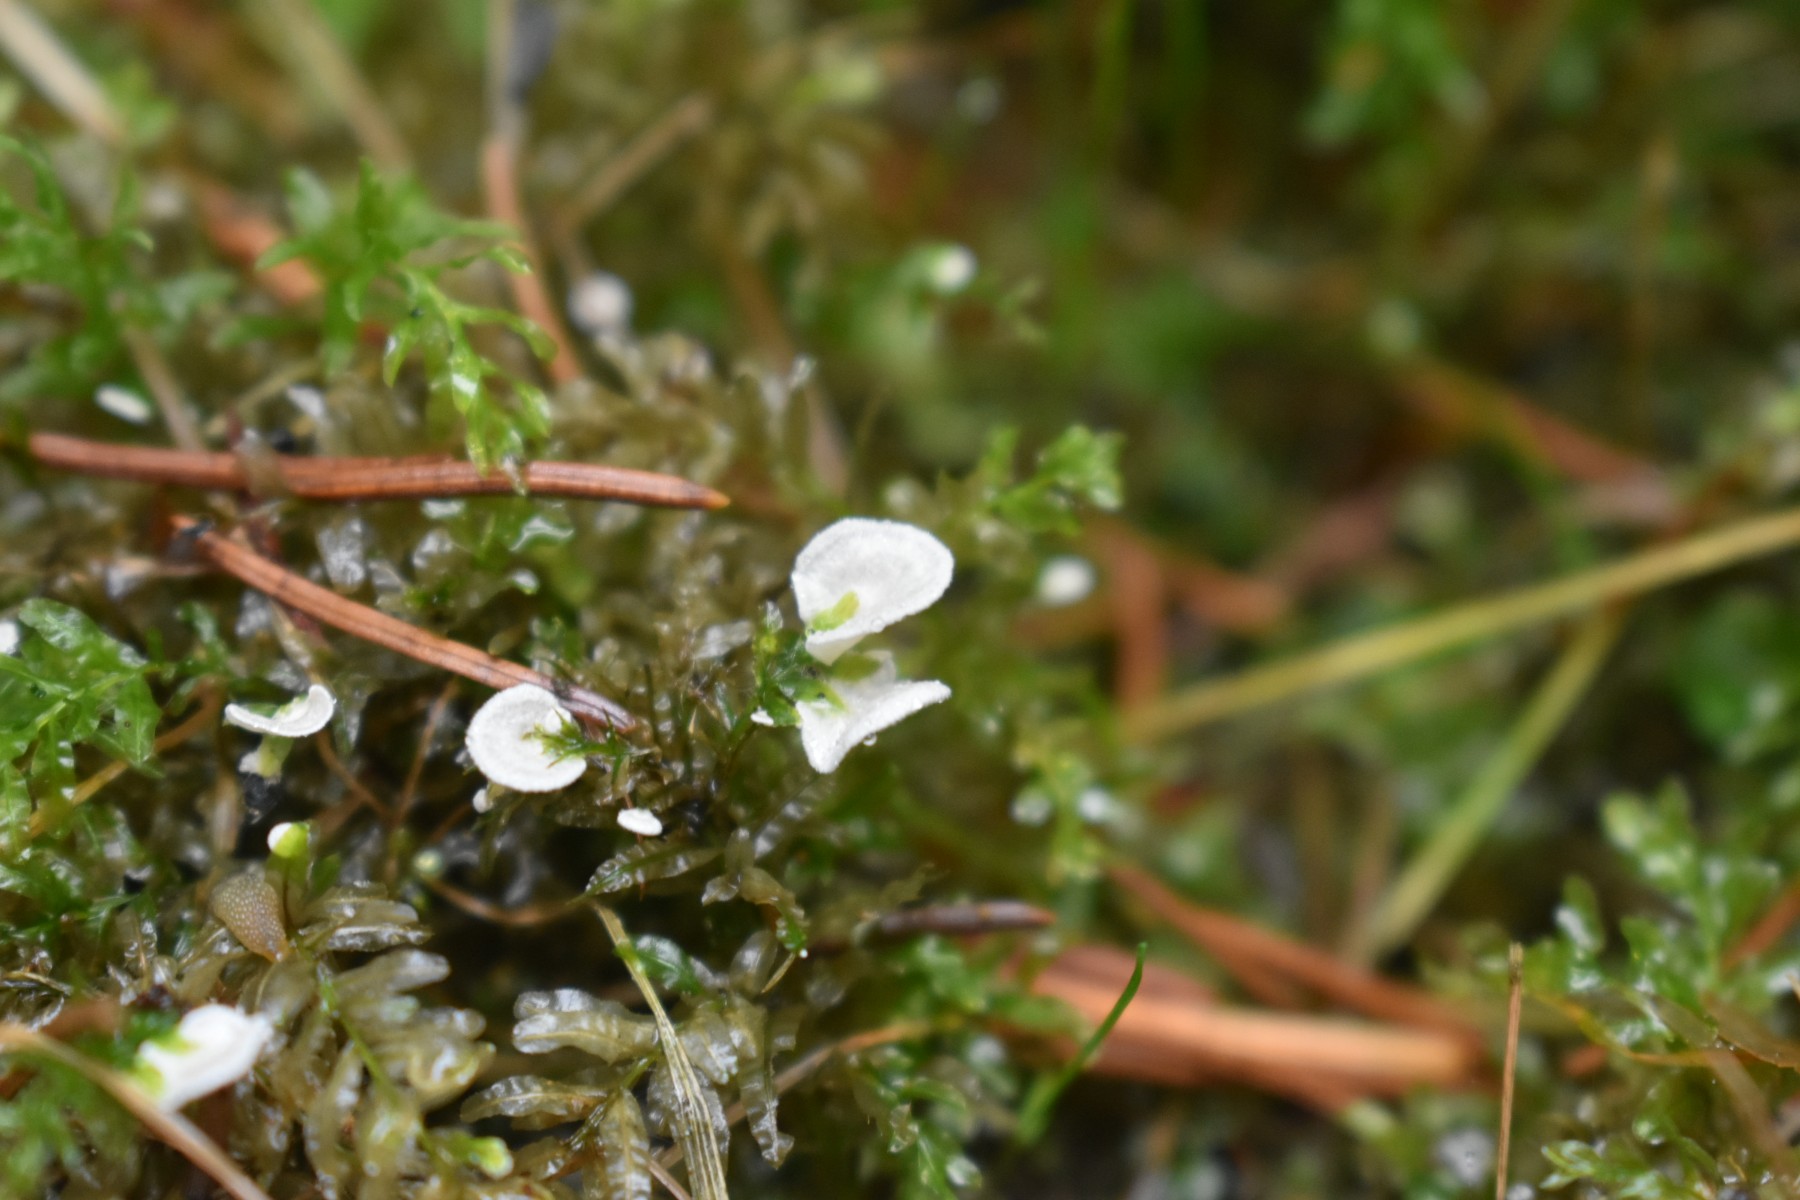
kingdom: Fungi
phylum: Basidiomycota
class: Agaricomycetes
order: Agaricales
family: Hygrophoraceae
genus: Arrhenia
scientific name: Arrhenia retiruga
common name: lille fontænehat
